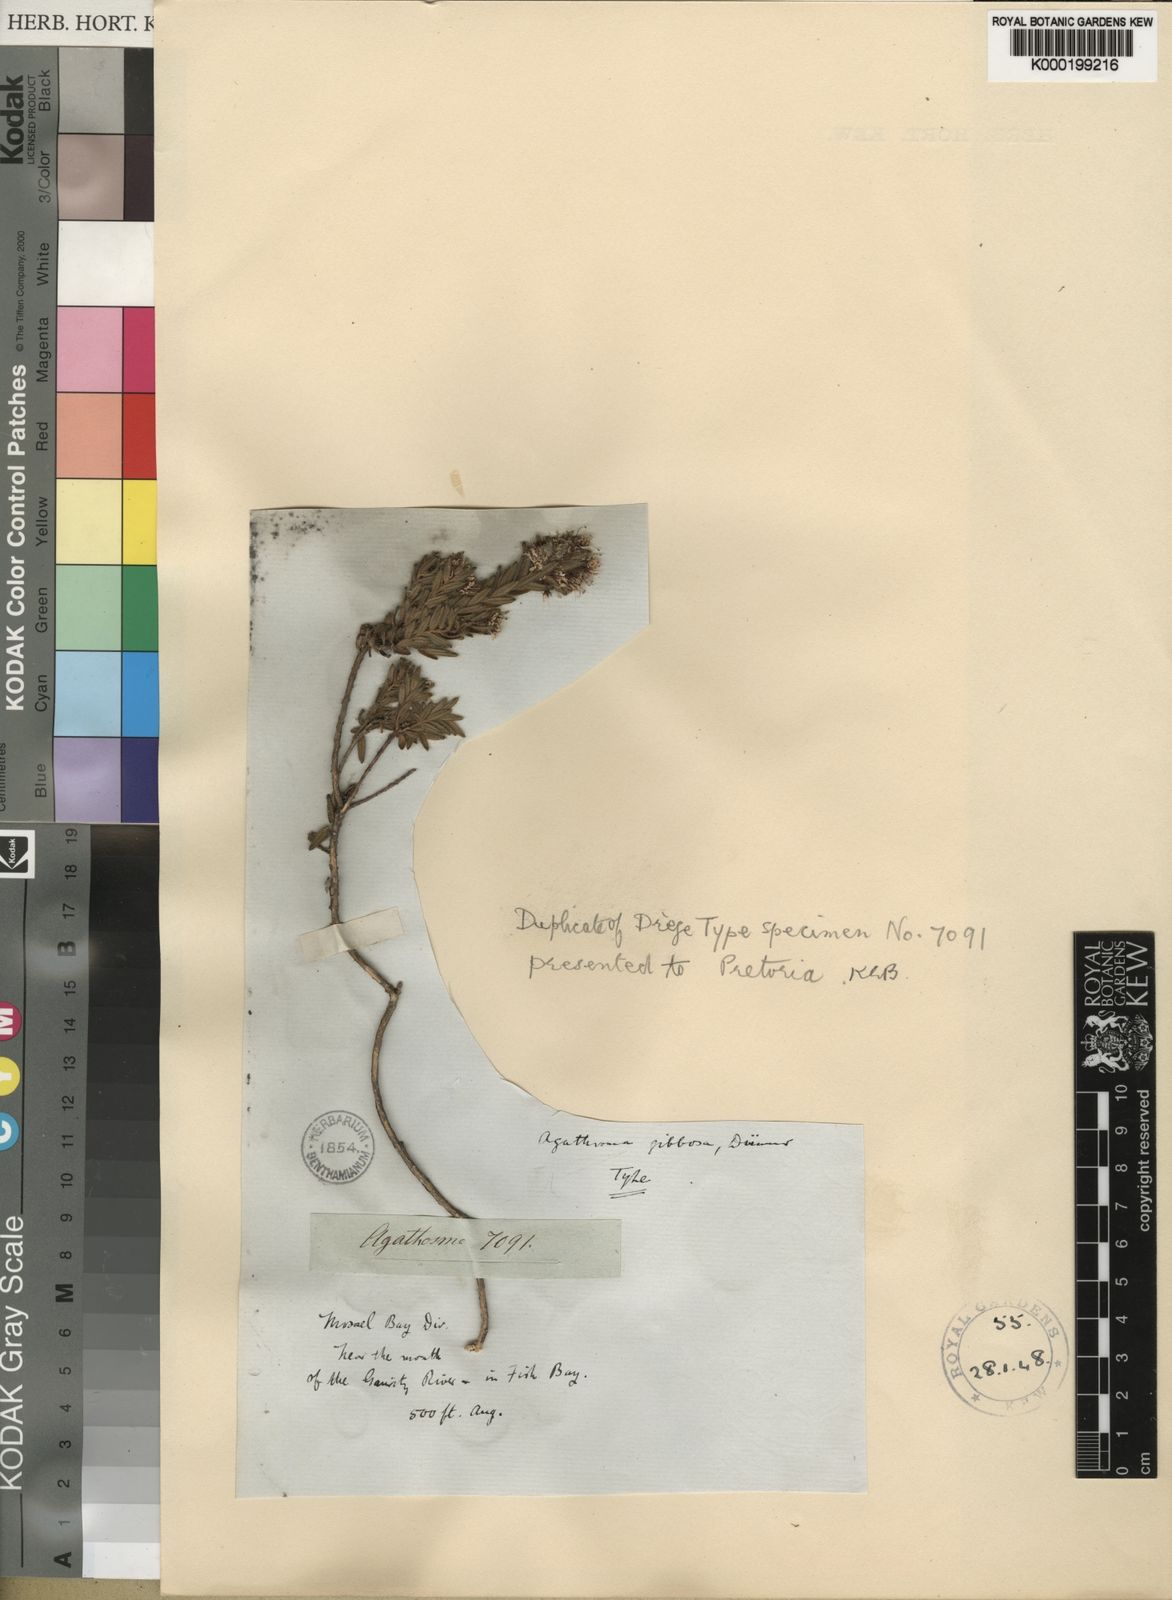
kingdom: Plantae
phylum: Tracheophyta
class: Magnoliopsida
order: Sapindales
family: Rutaceae
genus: Agathosma
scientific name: Agathosma
